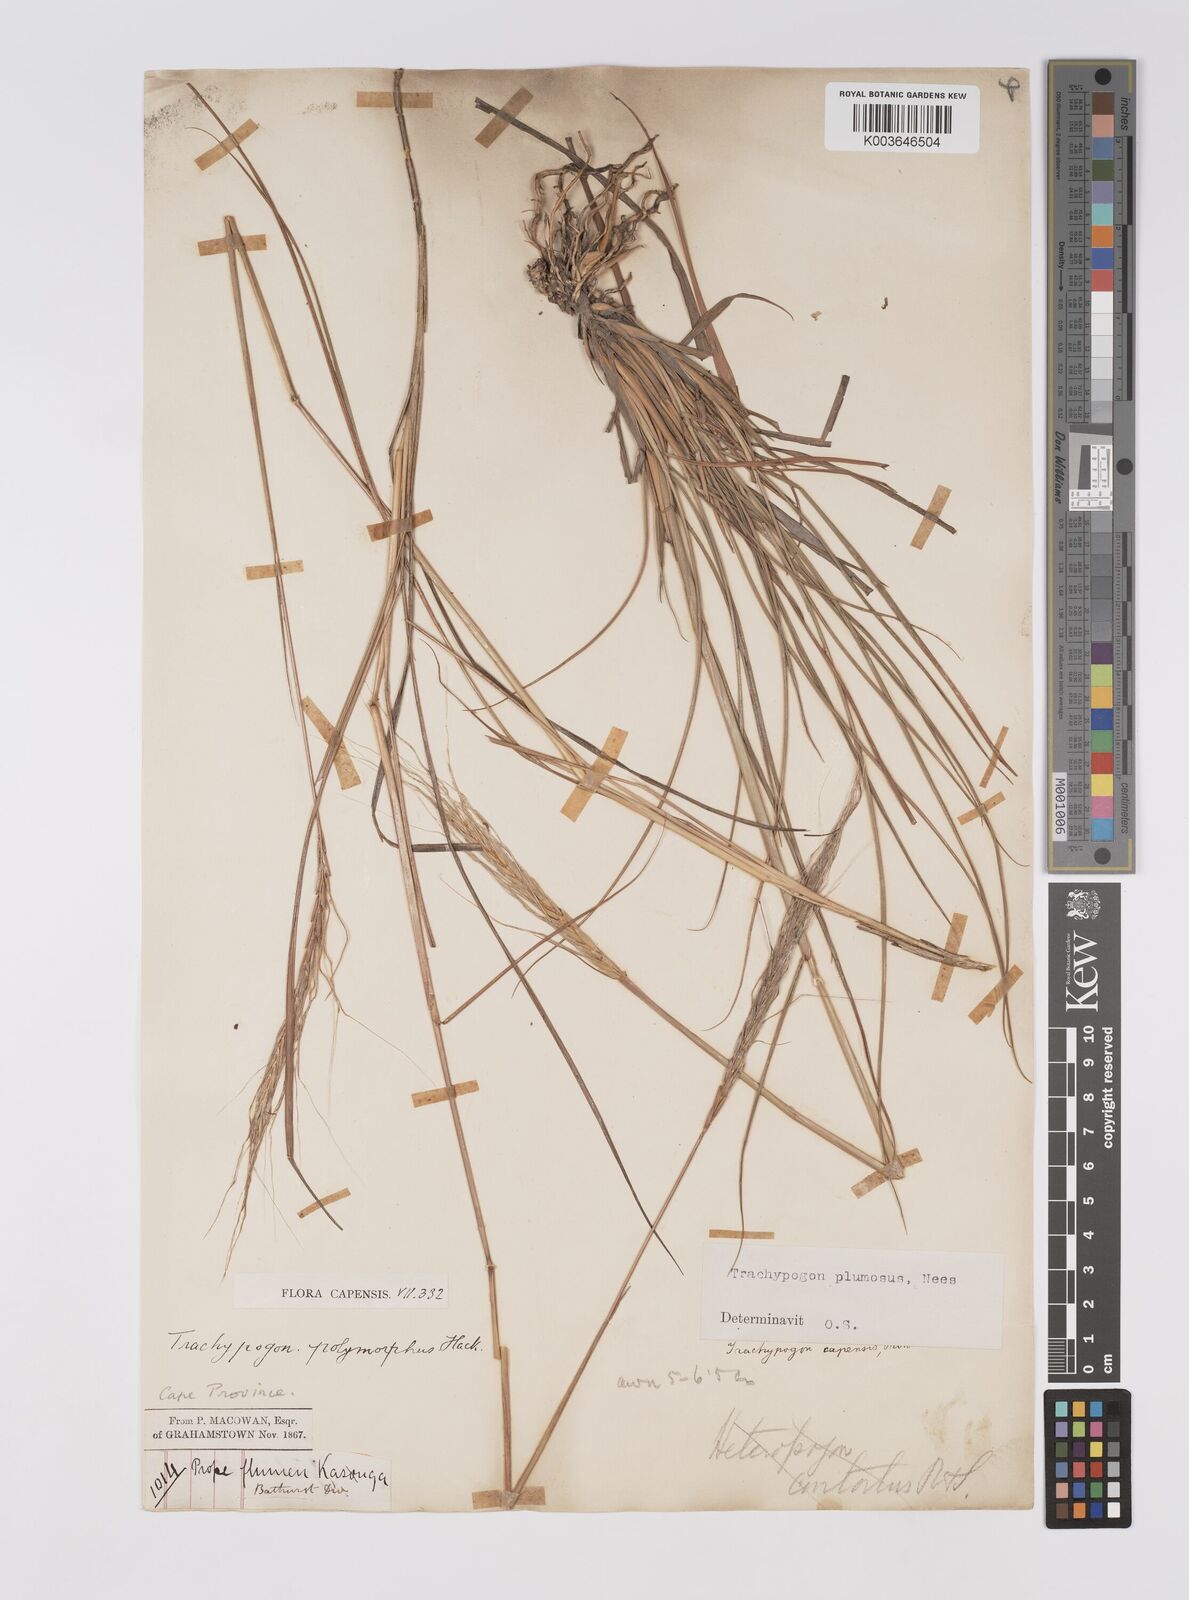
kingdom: Plantae
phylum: Tracheophyta
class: Liliopsida
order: Poales
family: Poaceae
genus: Trachypogon
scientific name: Trachypogon spicatus
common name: Crinkle-awn
